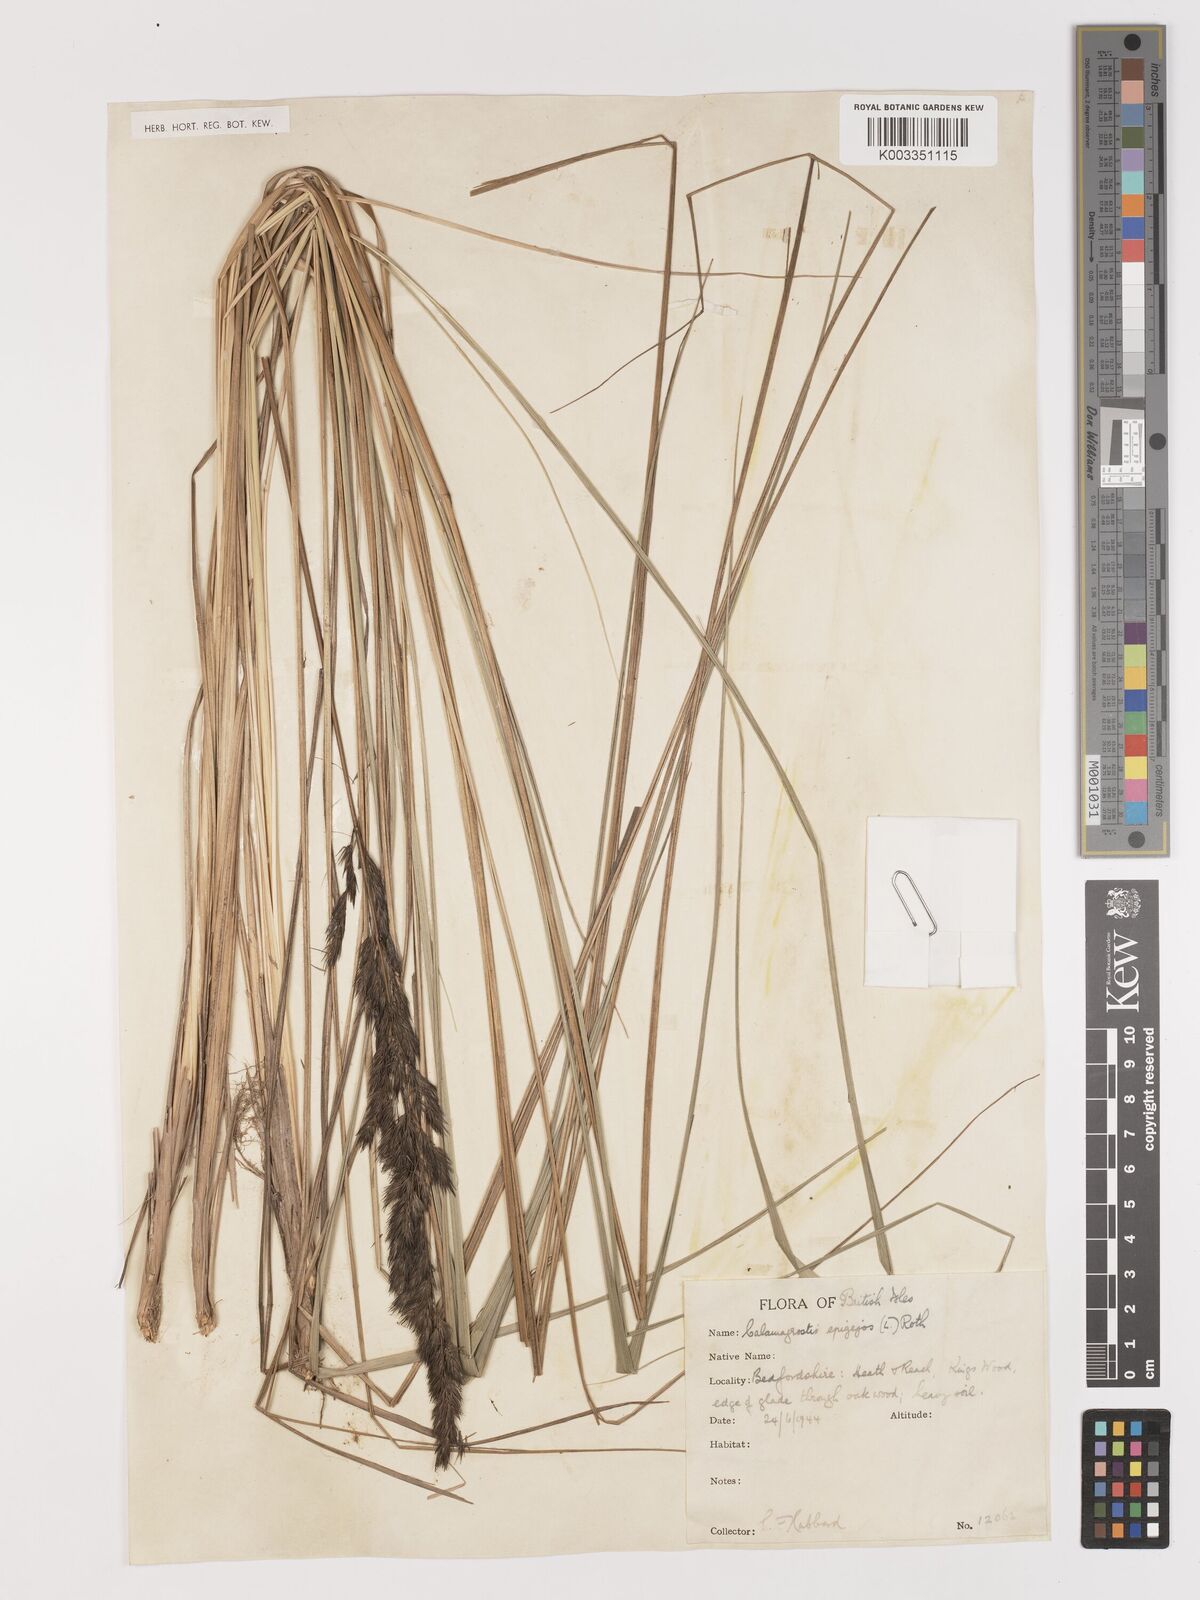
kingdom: Plantae
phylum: Tracheophyta
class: Liliopsida
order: Poales
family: Poaceae
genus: Calamagrostis
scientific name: Calamagrostis
